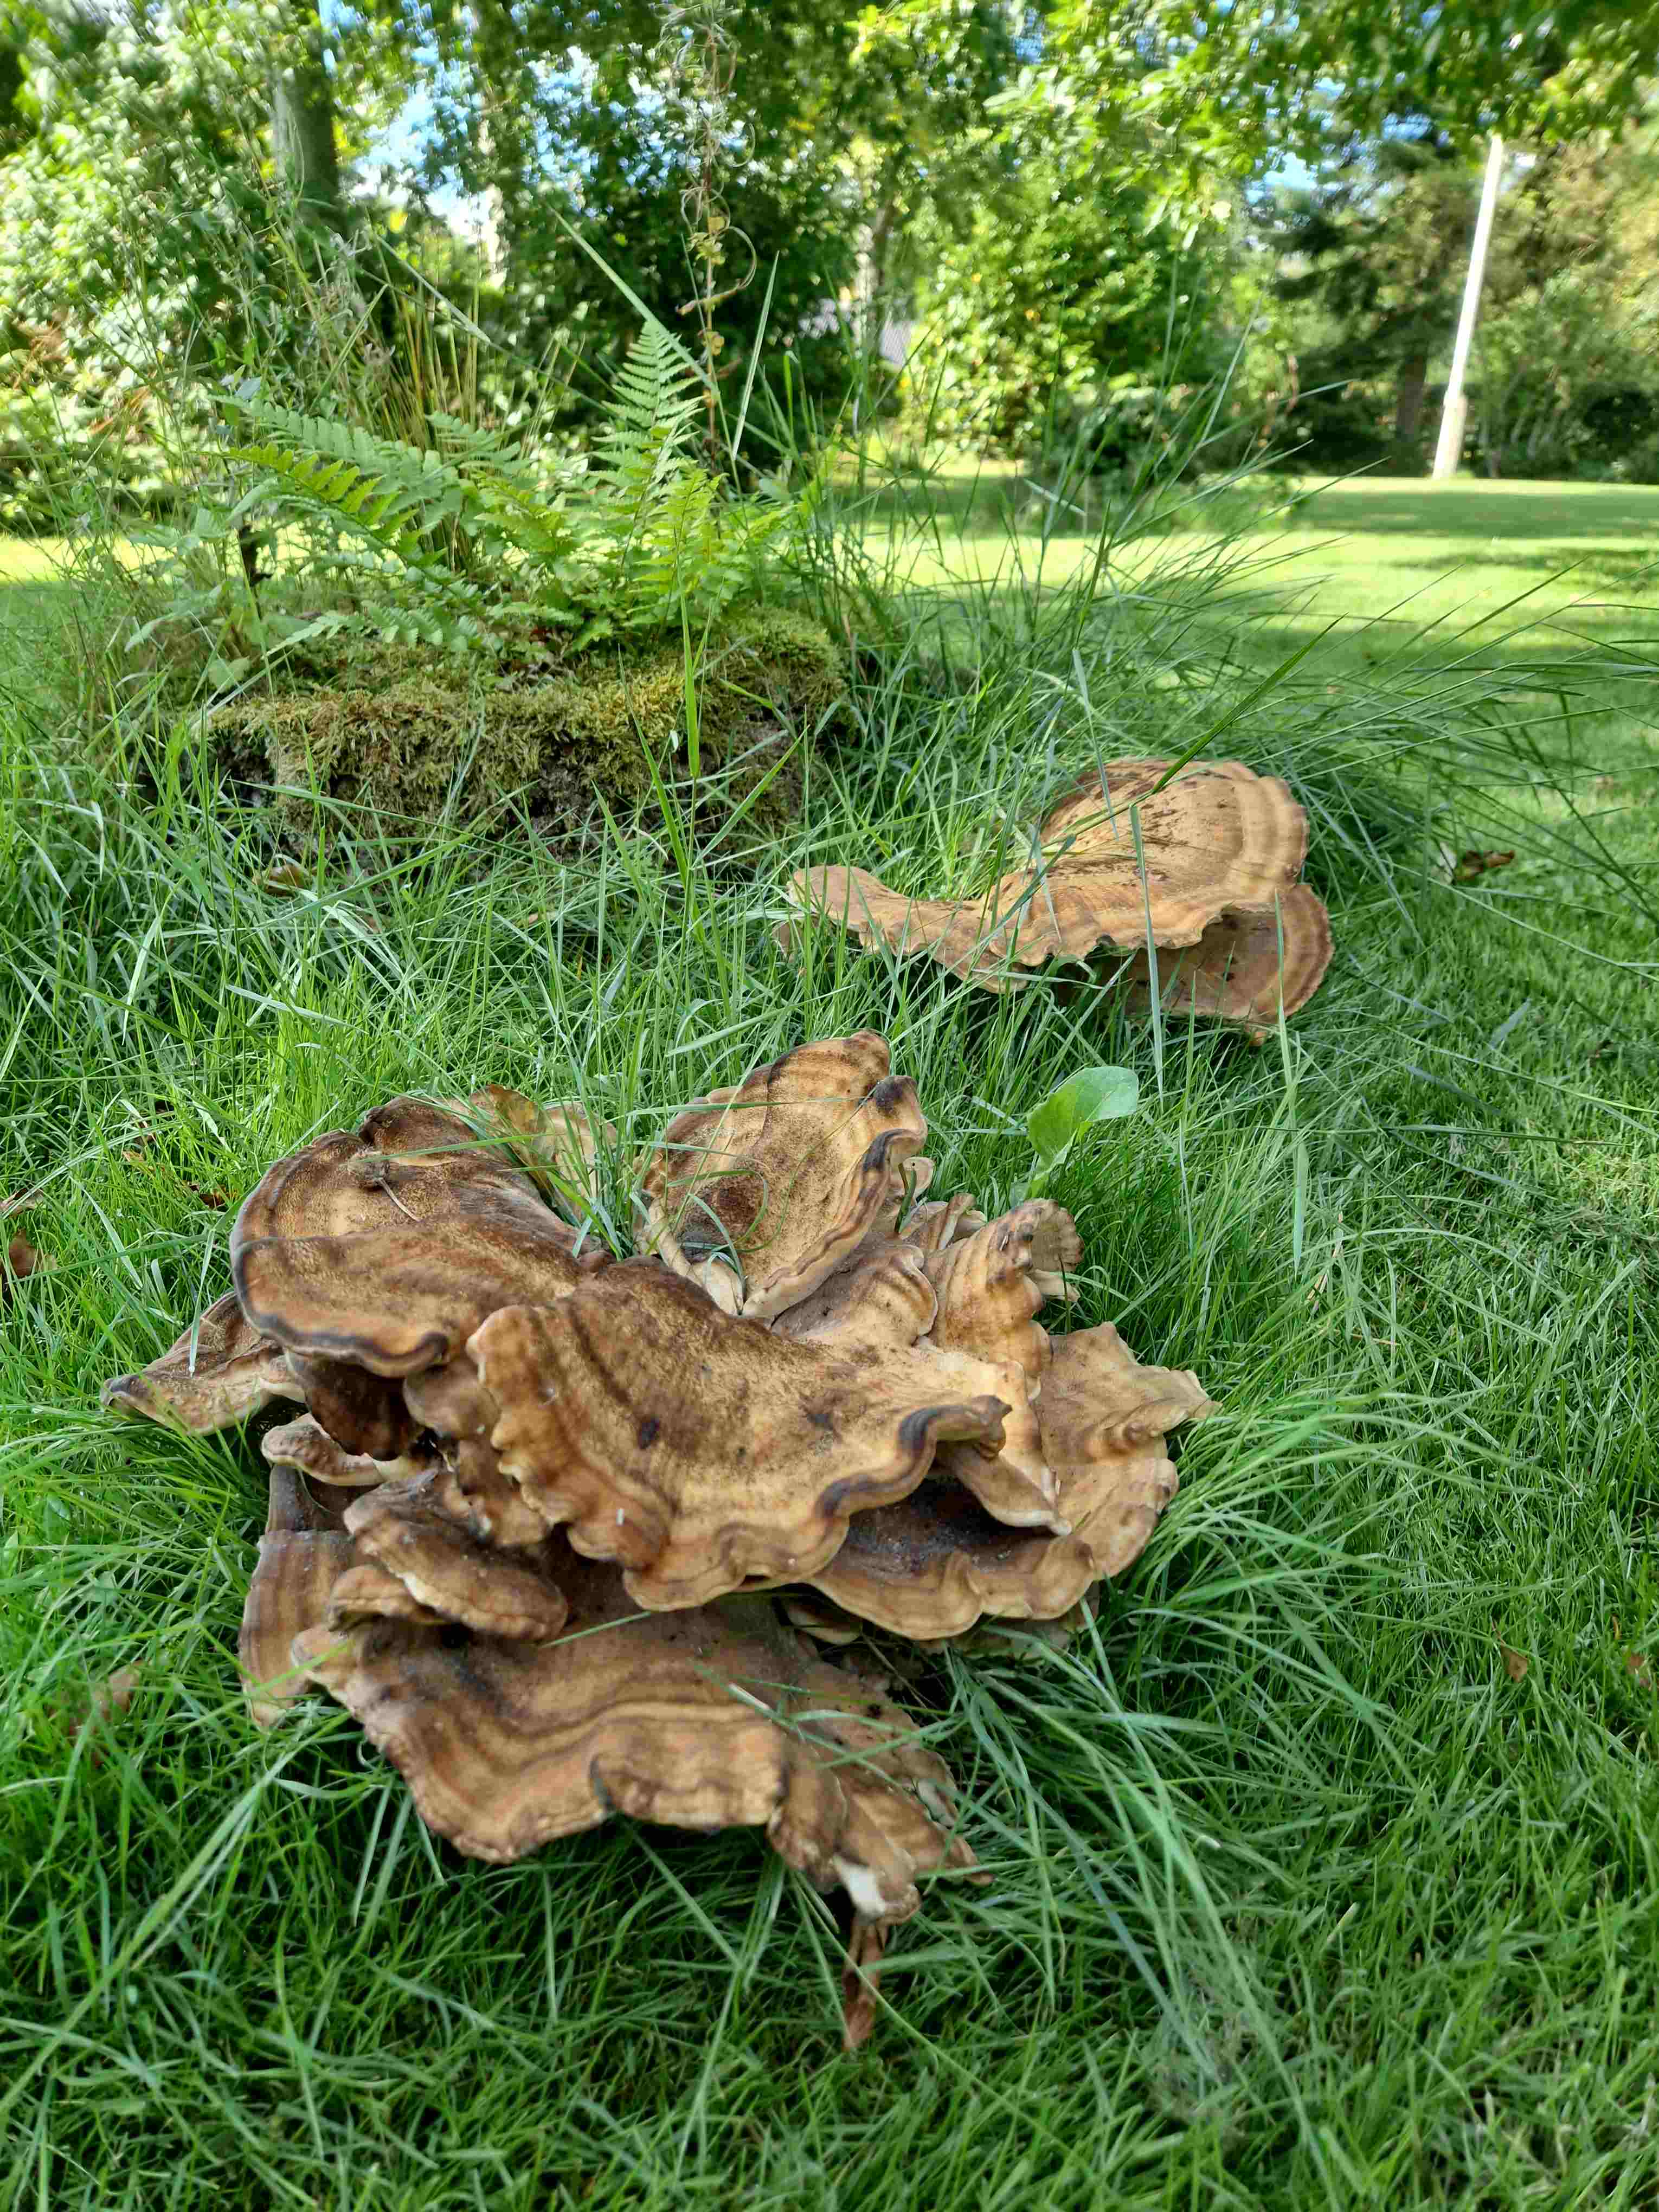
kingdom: Fungi
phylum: Basidiomycota
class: Agaricomycetes
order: Polyporales
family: Meripilaceae
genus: Meripilus
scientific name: Meripilus giganteus
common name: kæmpeporesvamp
